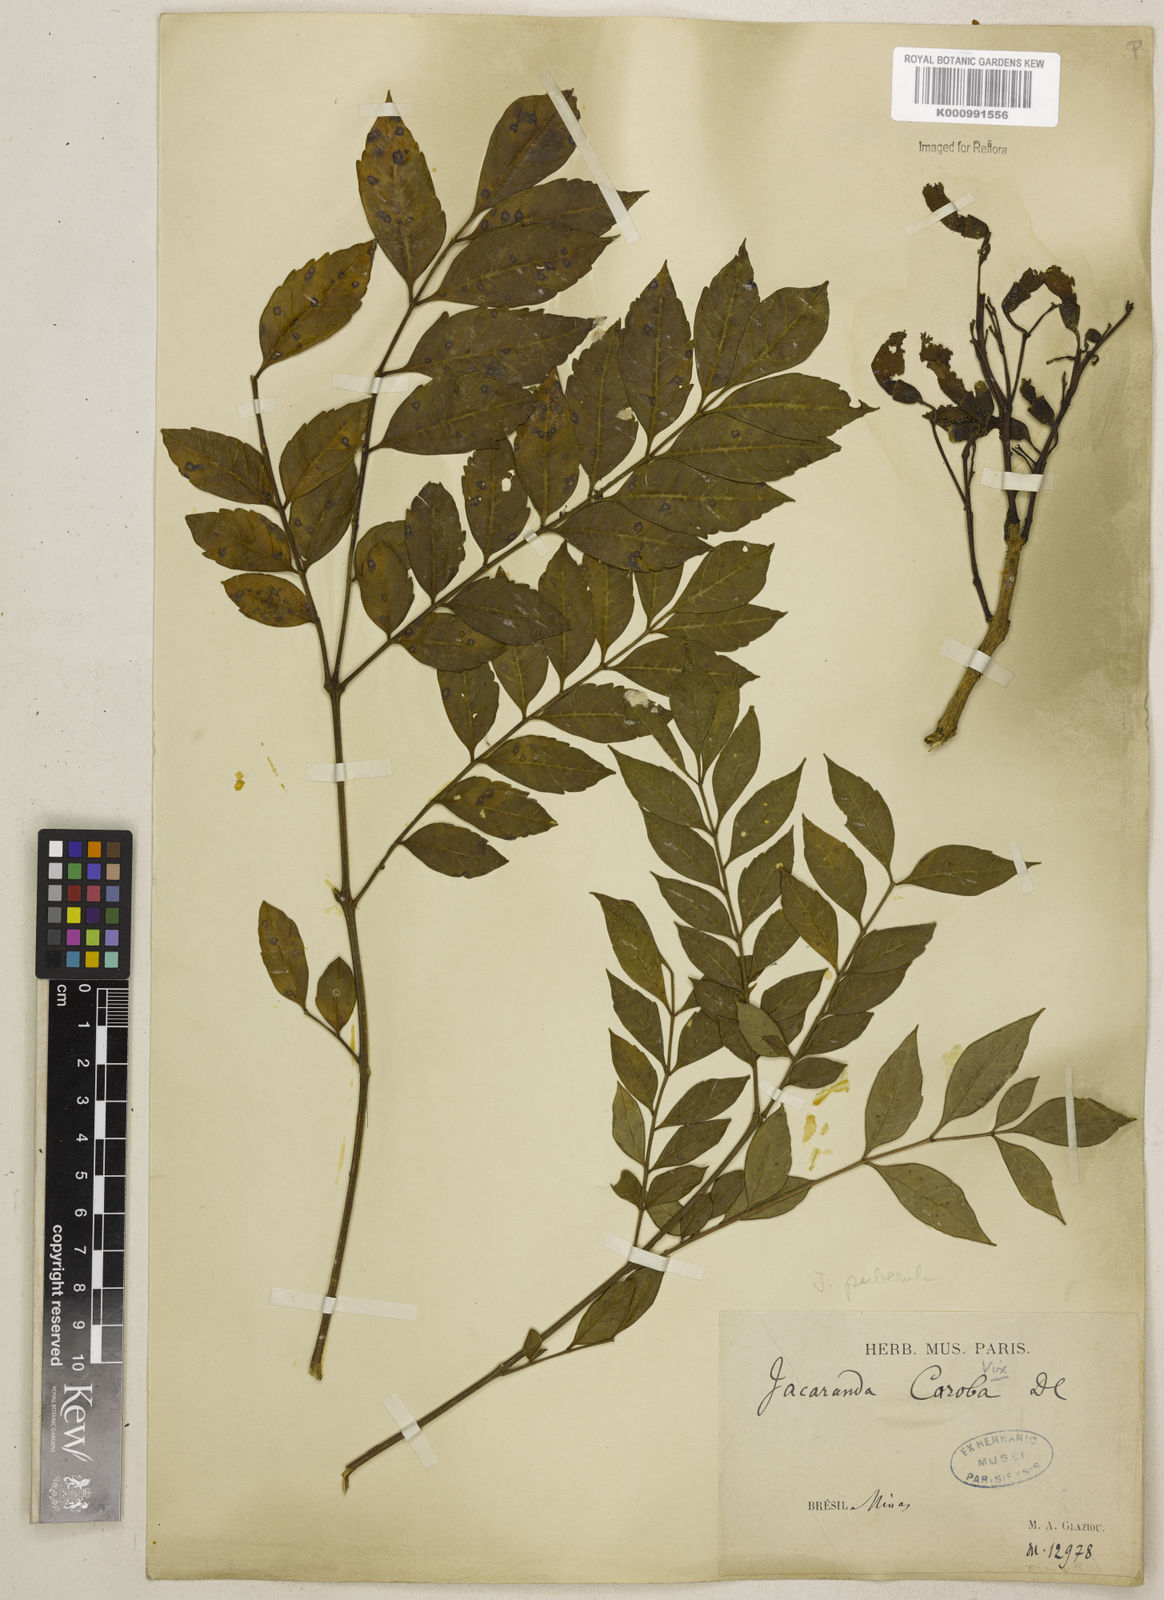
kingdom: Plantae
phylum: Tracheophyta
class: Magnoliopsida
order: Lamiales
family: Bignoniaceae
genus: Jacaranda
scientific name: Jacaranda puberula
